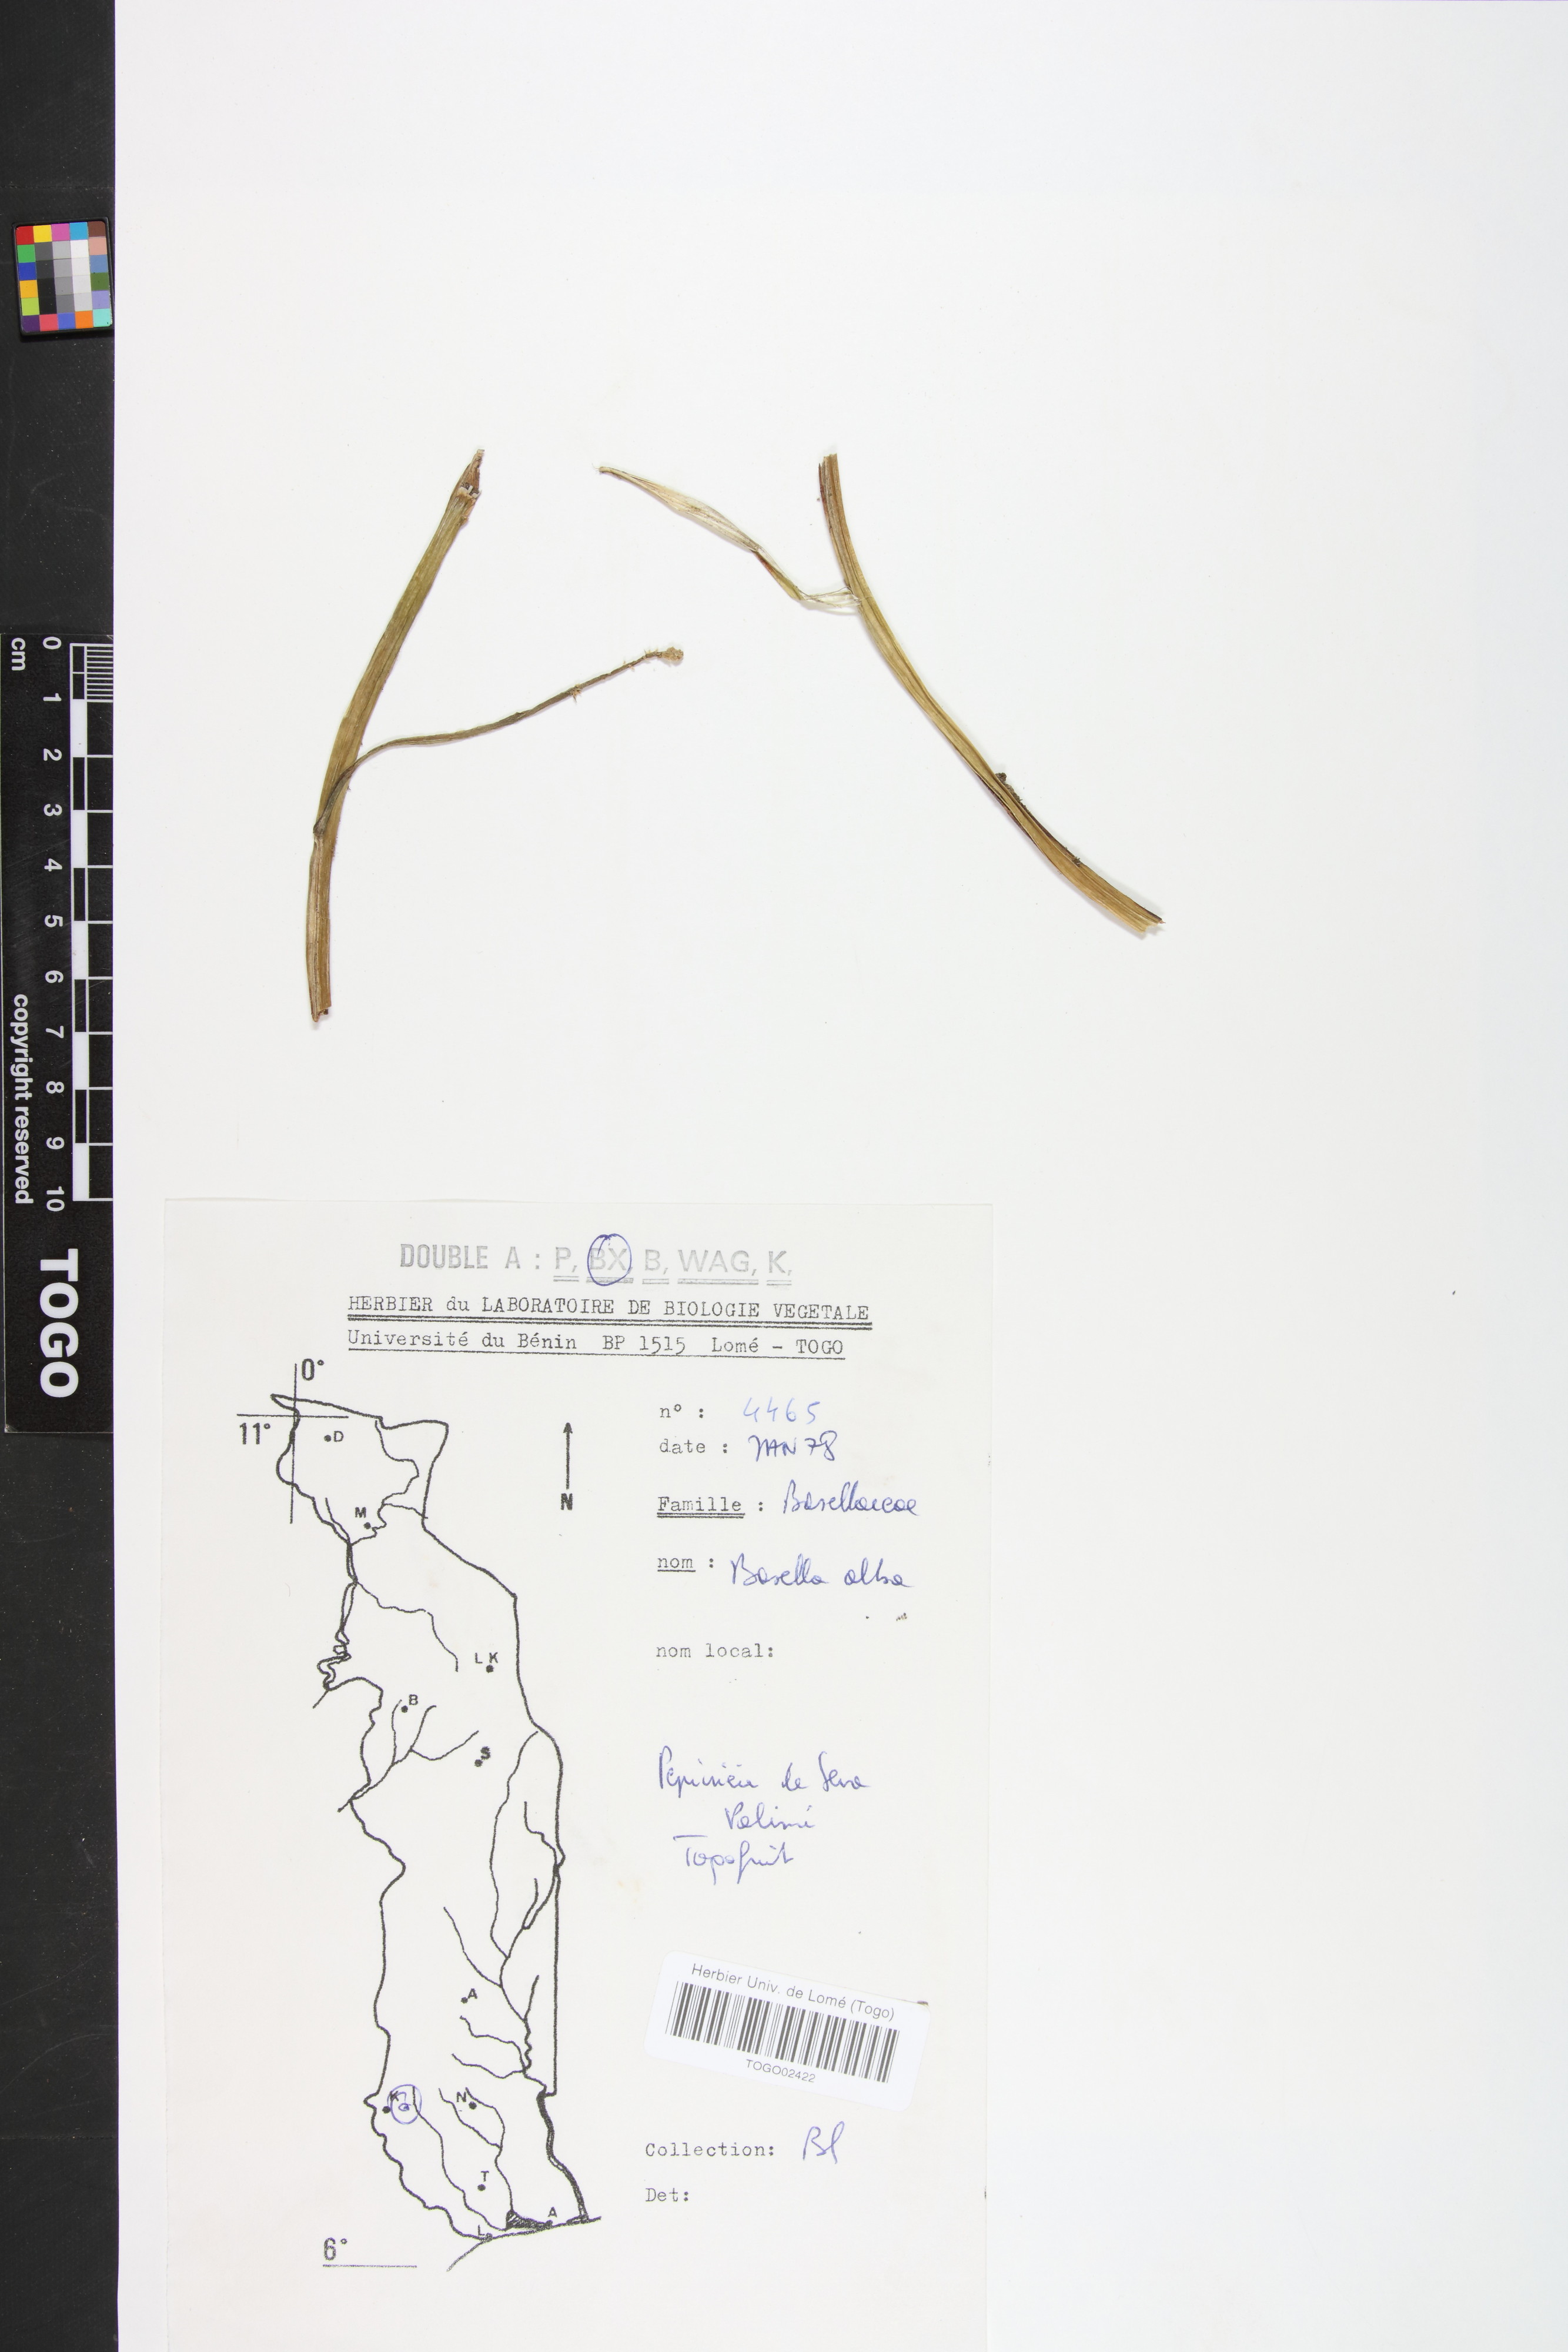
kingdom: Plantae
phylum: Tracheophyta
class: Magnoliopsida
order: Caryophyllales
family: Basellaceae
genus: Basella
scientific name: Basella alba
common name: Indian spinach
